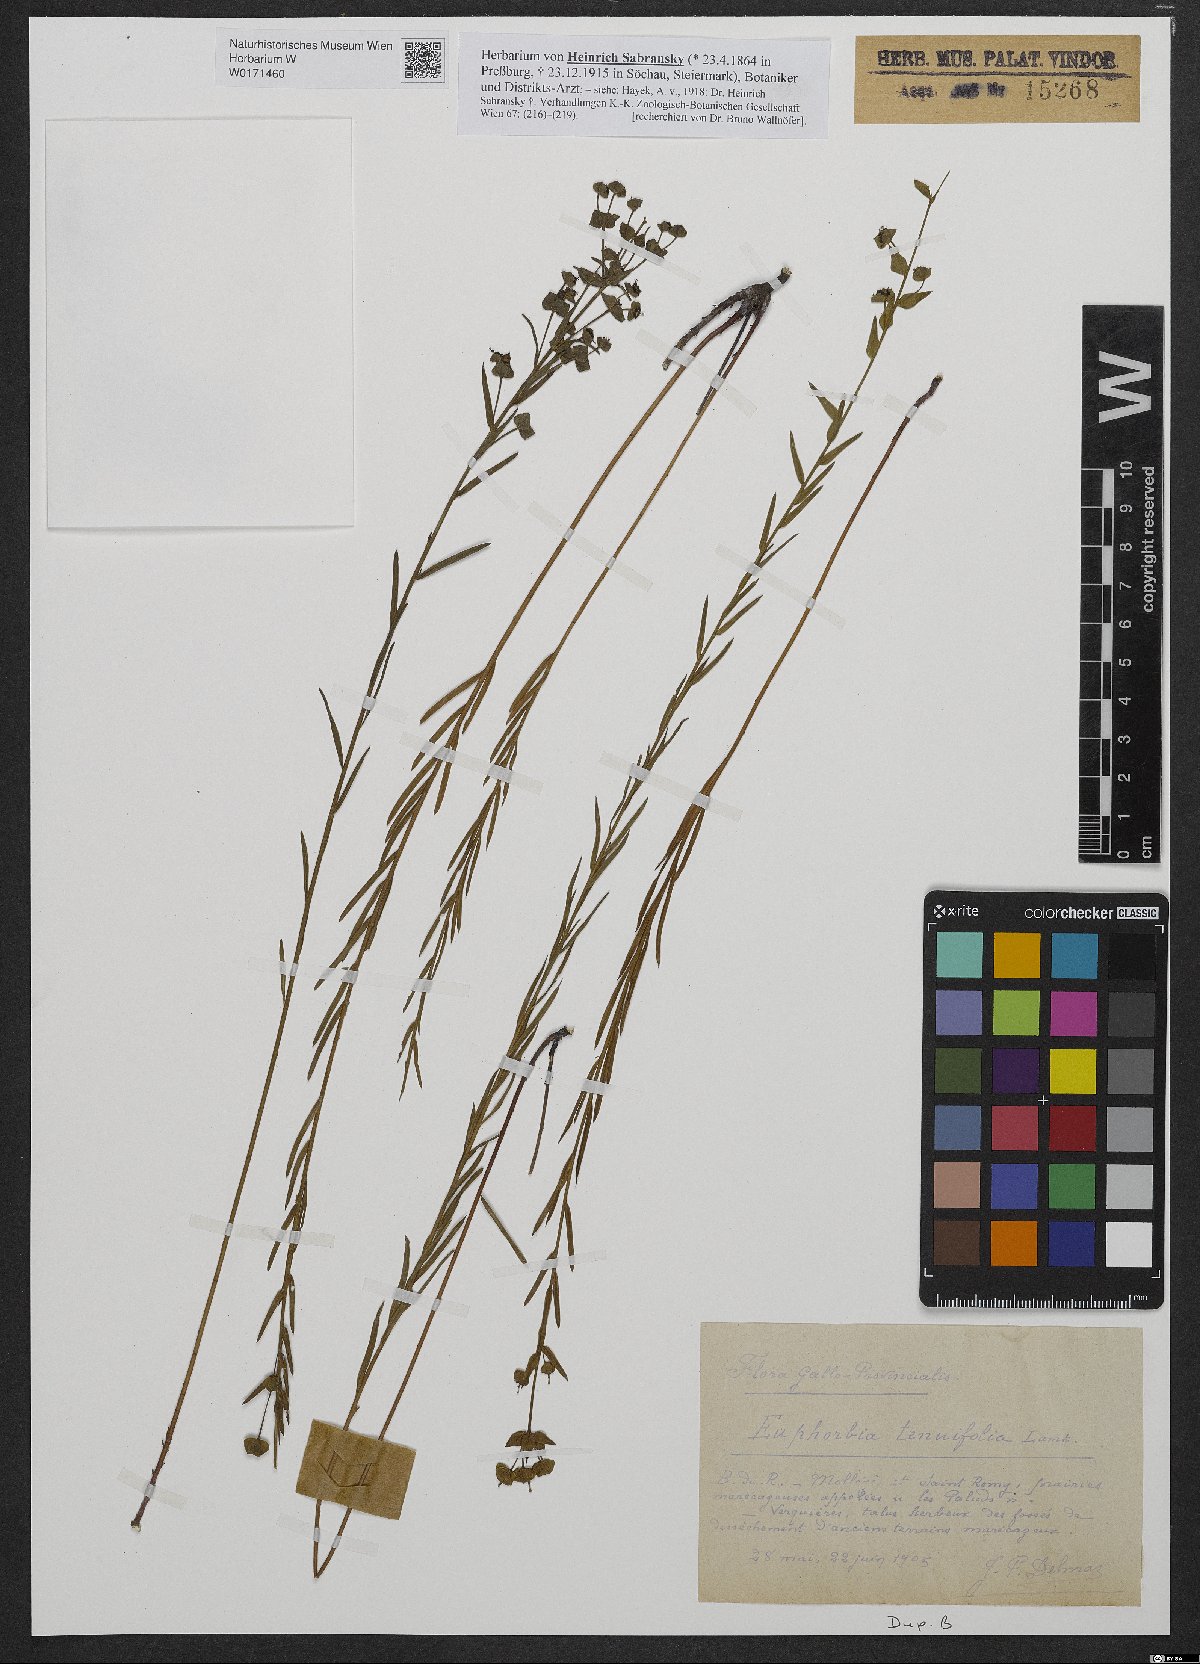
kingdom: Plantae
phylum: Tracheophyta
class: Magnoliopsida
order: Malpighiales
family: Euphorbiaceae
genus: Euphorbia
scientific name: Euphorbia graminifolia
